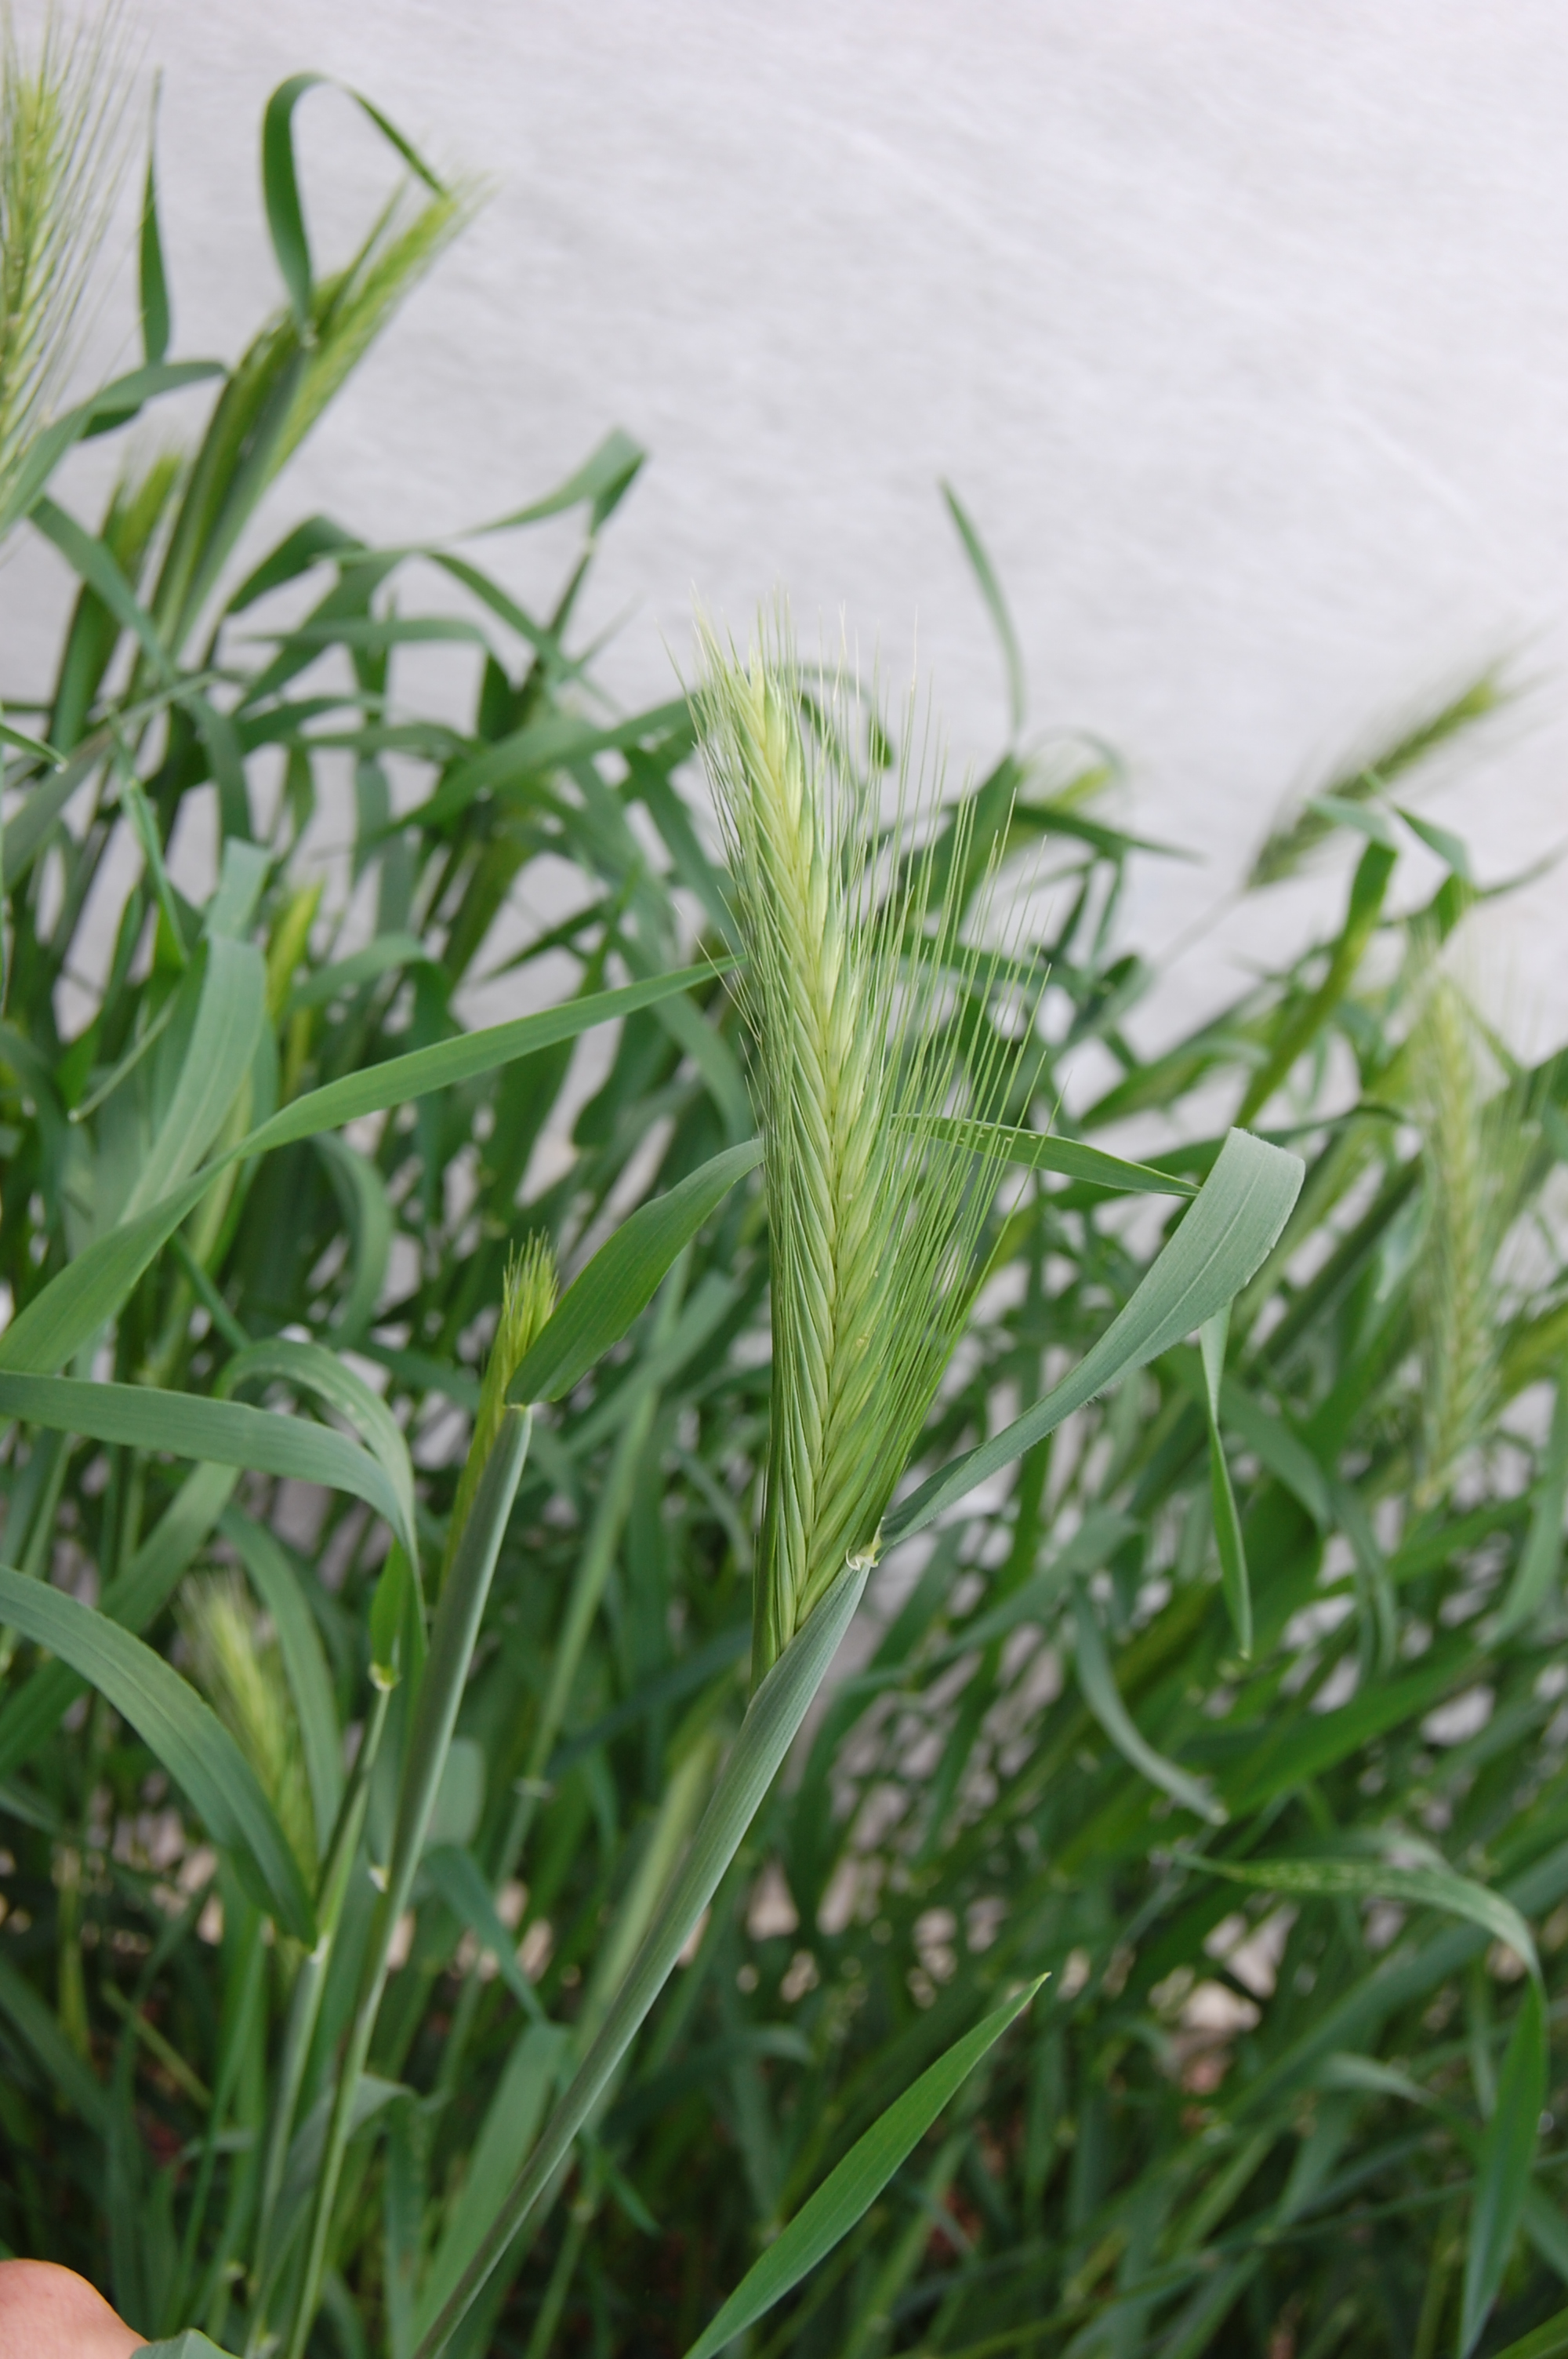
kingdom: Plantae
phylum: Tracheophyta
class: Liliopsida
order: Poales
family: Poaceae
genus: Hordeum
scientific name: Hordeum marinum
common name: Sea barley
